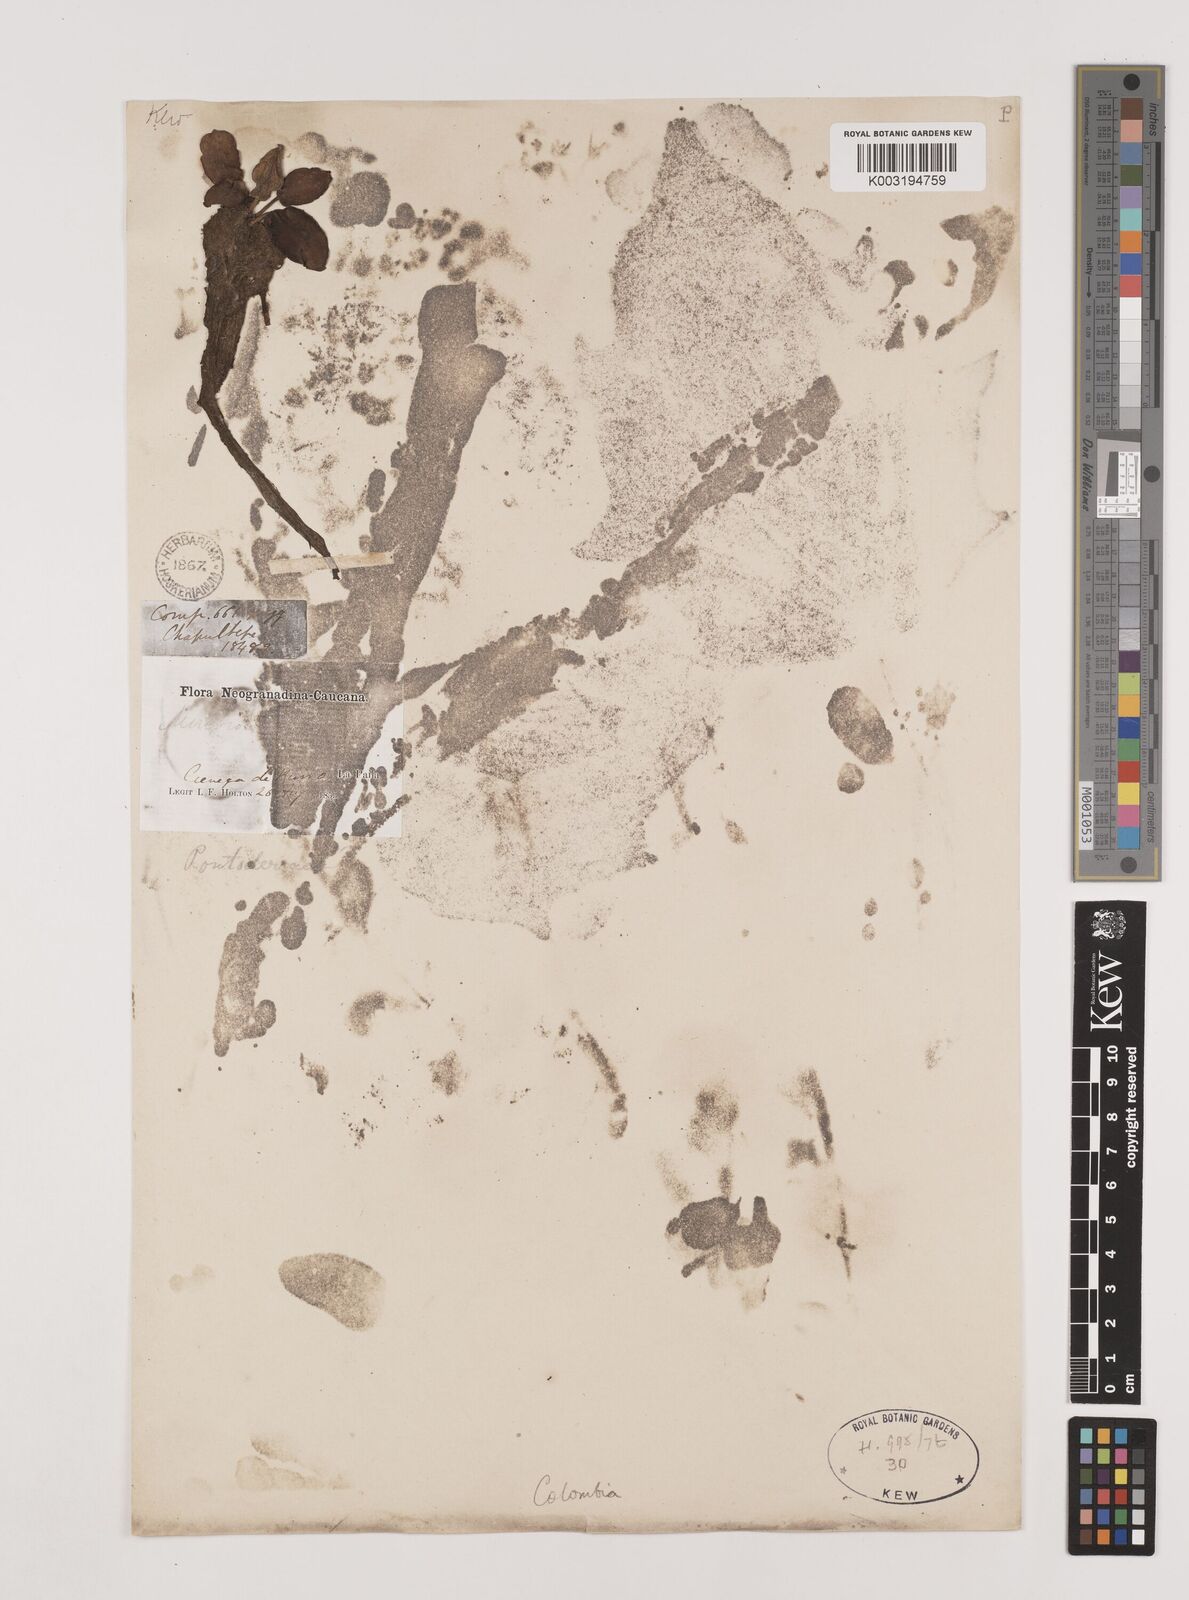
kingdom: Plantae
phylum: Tracheophyta
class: Liliopsida
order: Alismatales
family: Hydrocharitaceae
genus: Hydrocharis
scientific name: Hydrocharis laevigata
